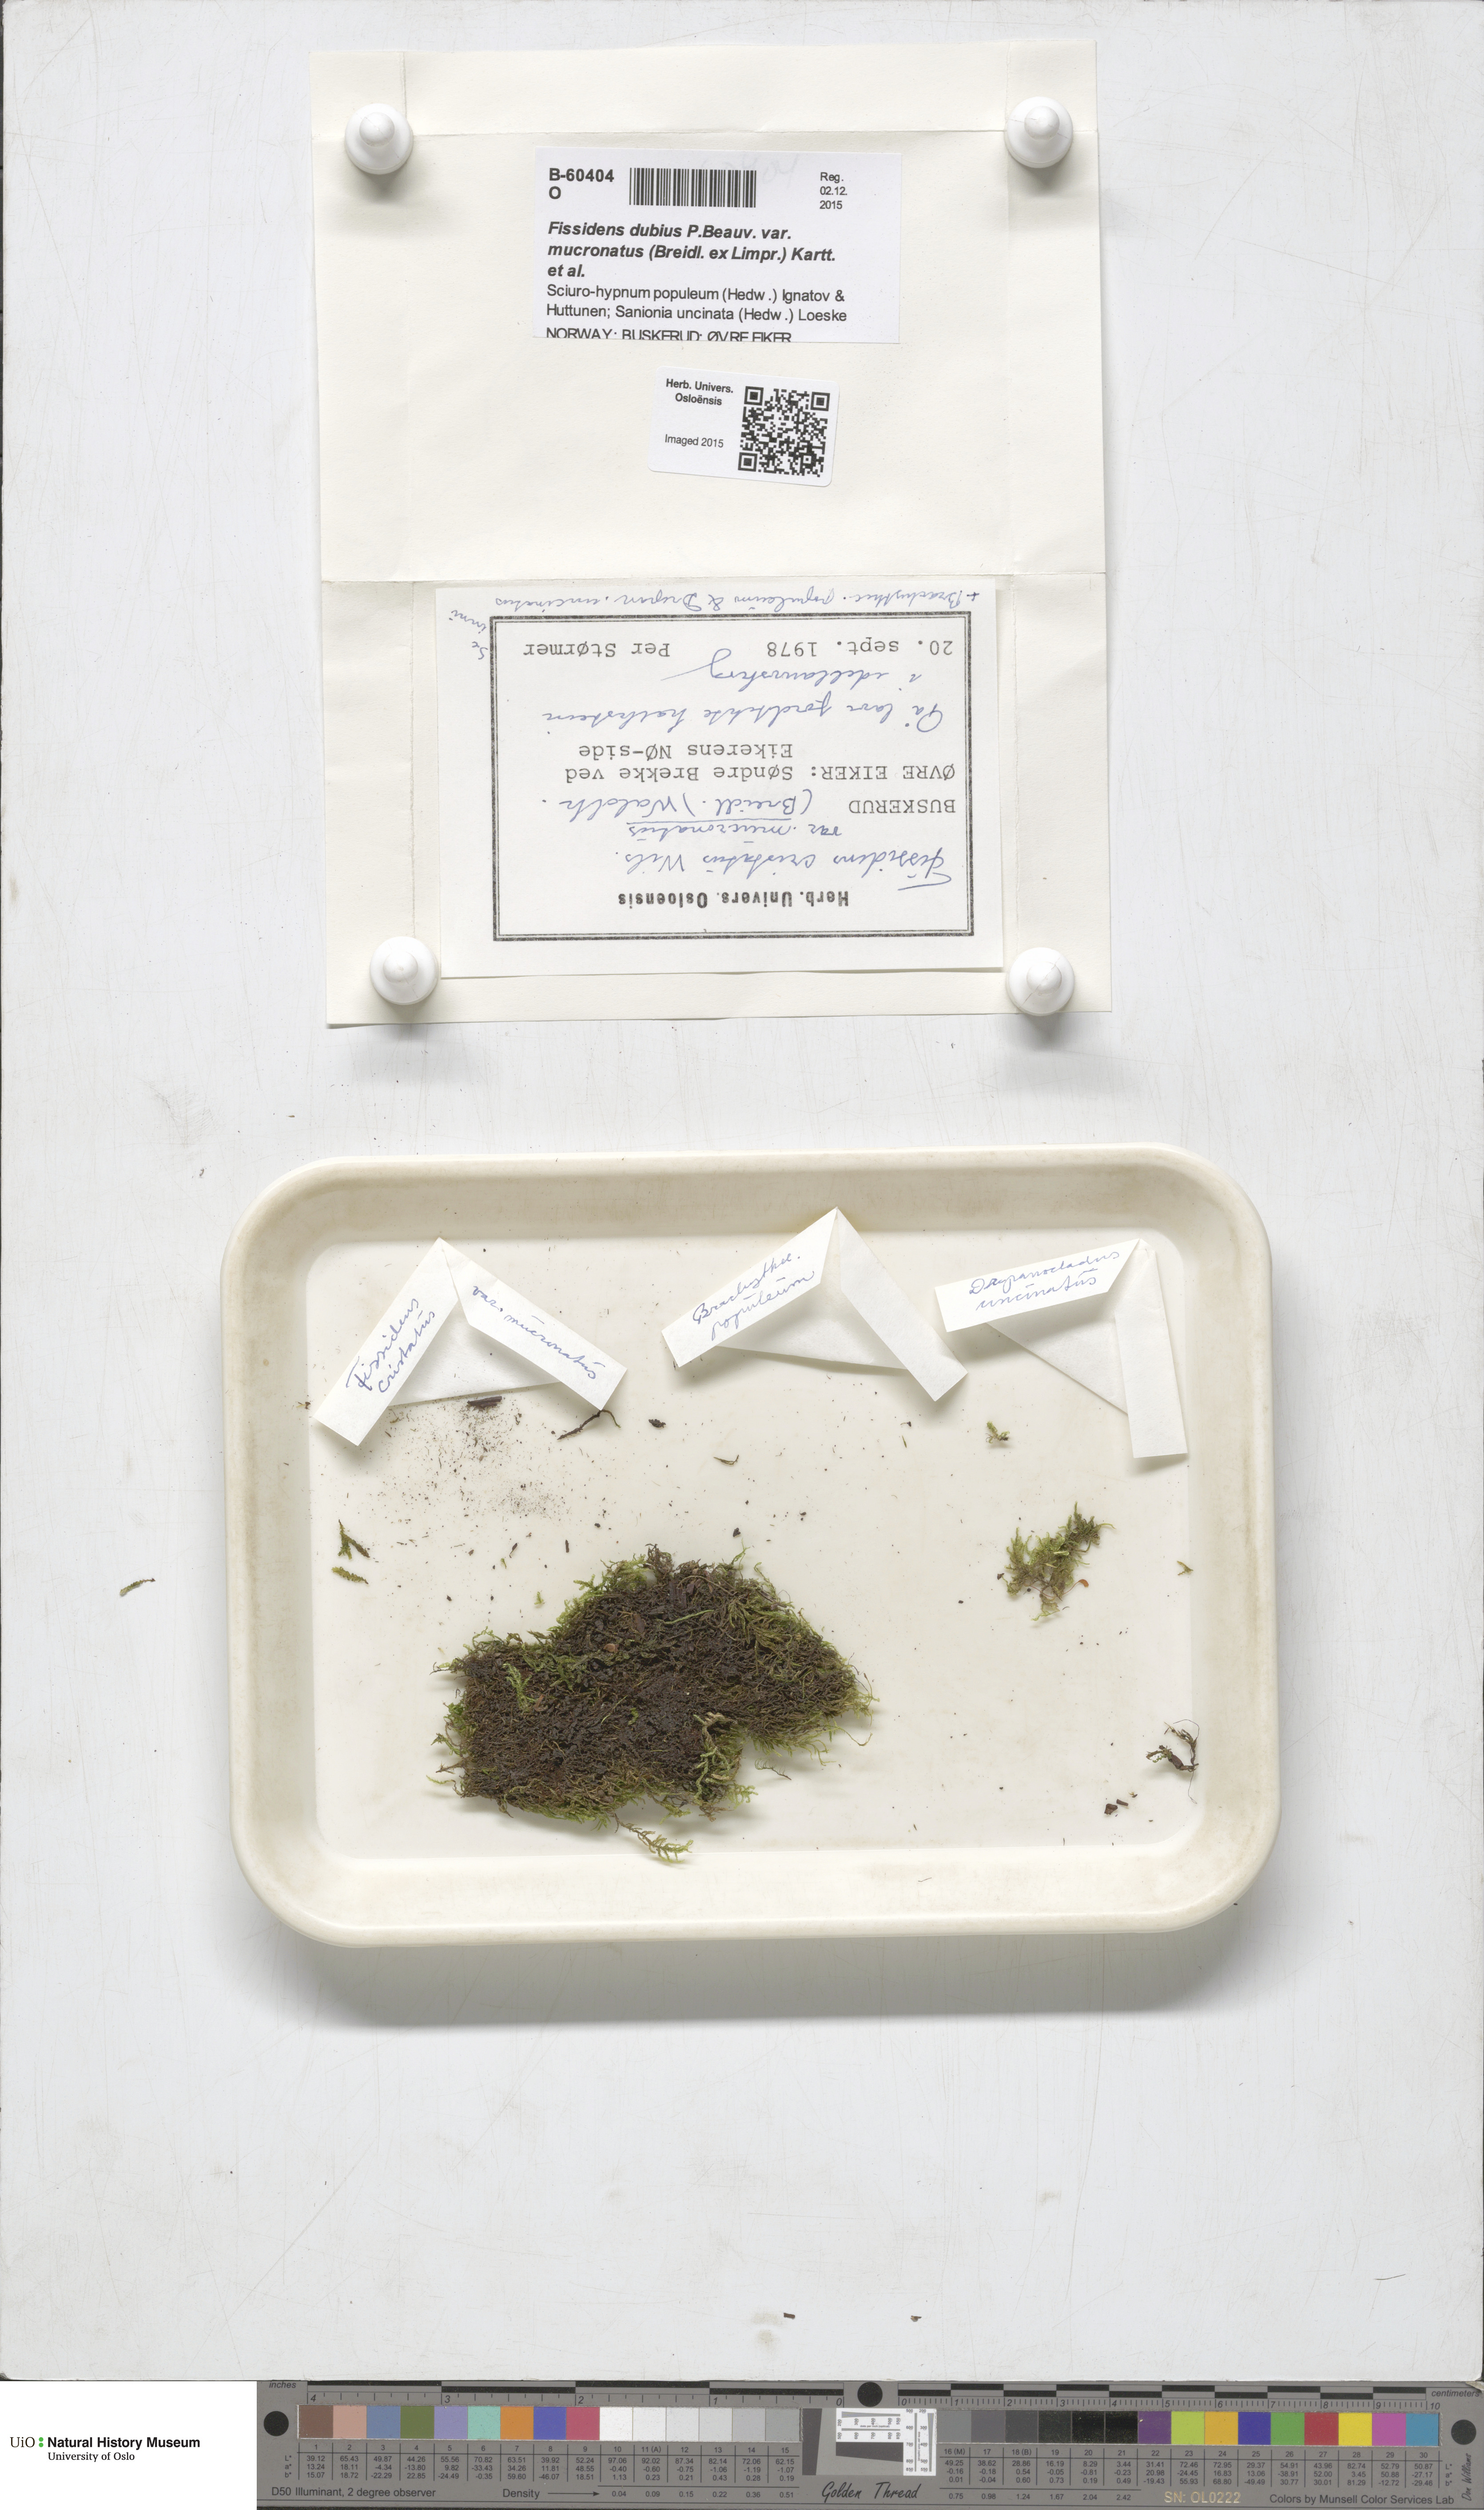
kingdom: Plantae
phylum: Bryophyta
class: Bryopsida
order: Dicranales
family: Fissidentaceae
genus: Fissidens
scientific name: Fissidens dubius
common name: Rock pocket moss
